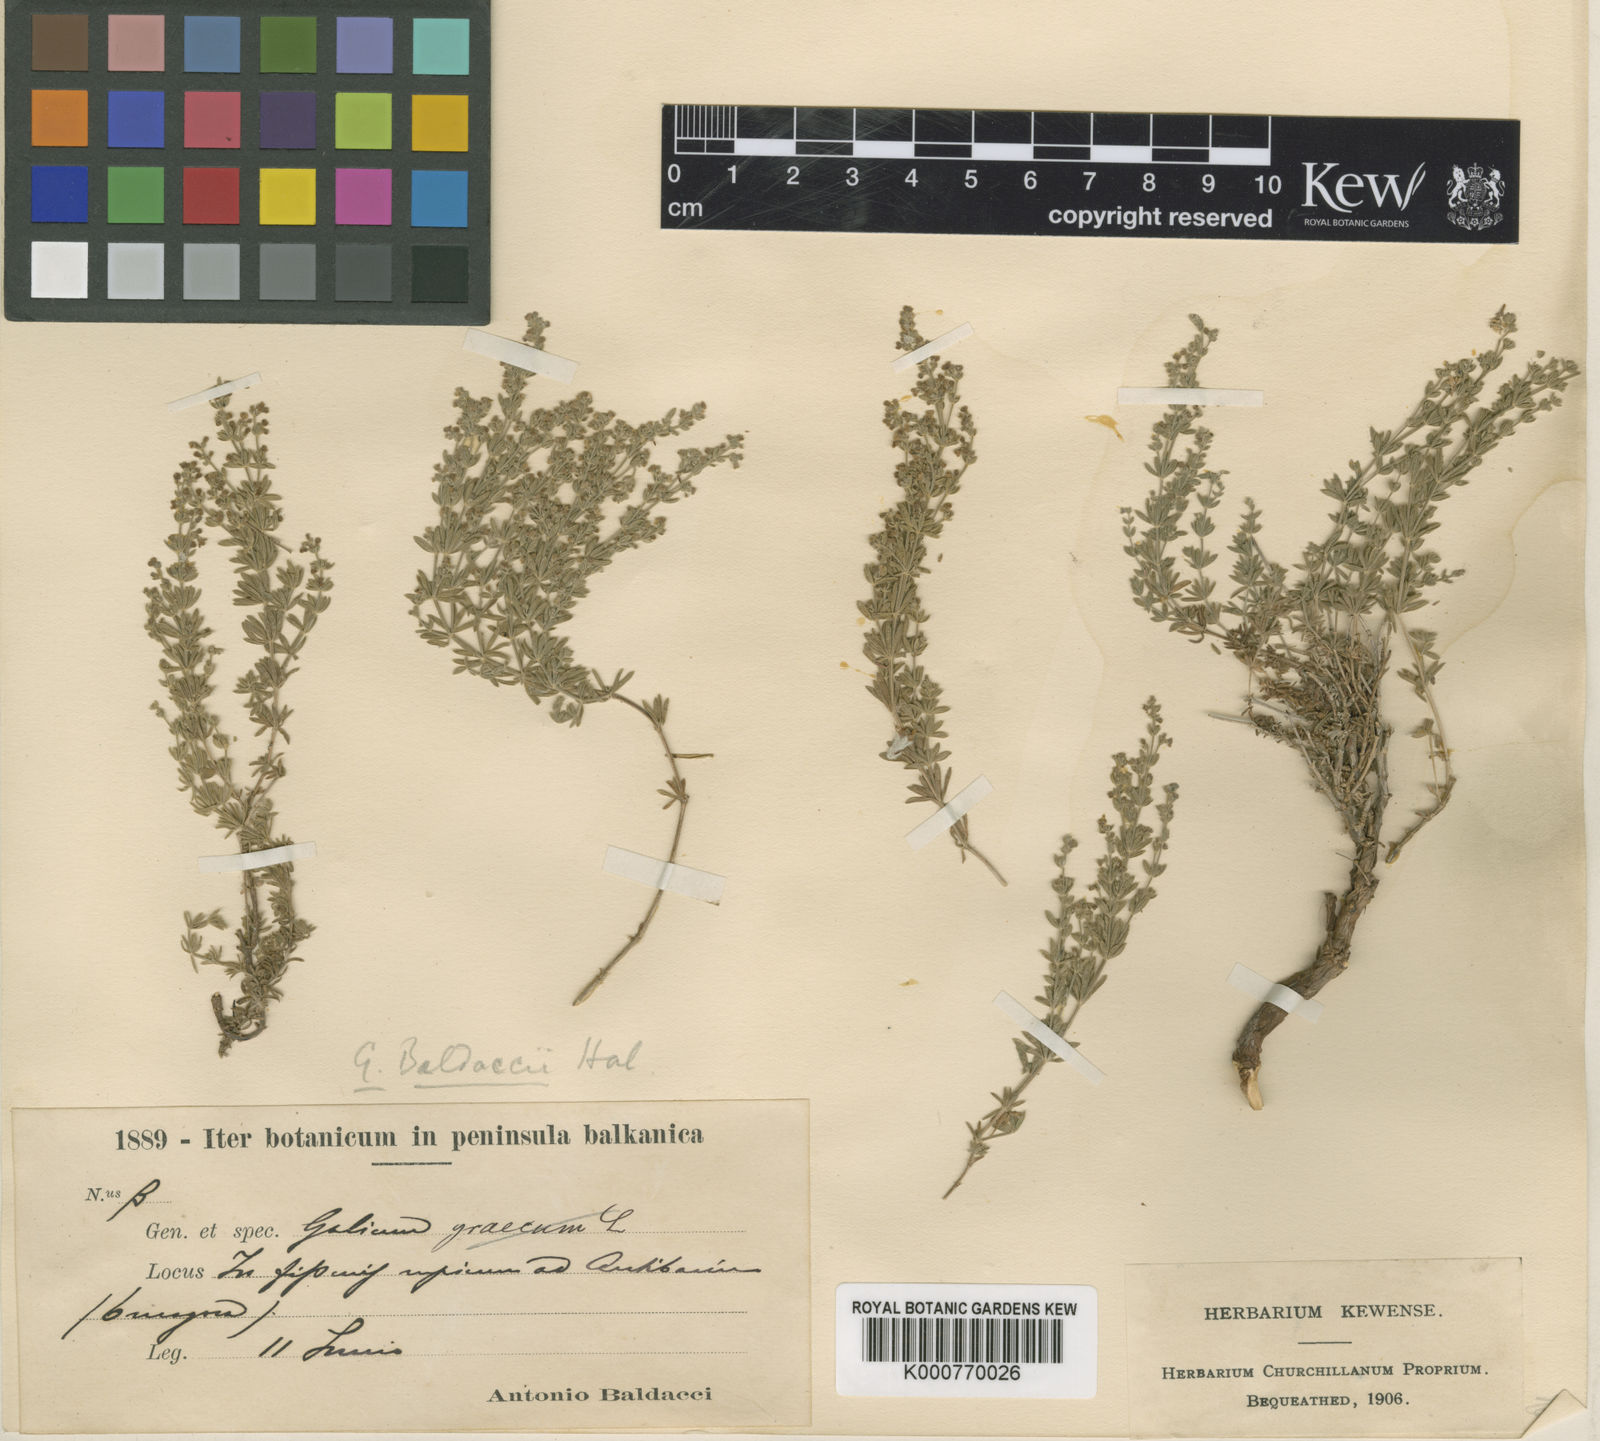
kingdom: Plantae
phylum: Tracheophyta
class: Magnoliopsida
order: Gentianales
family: Rubiaceae
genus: Asperula
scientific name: Asperula
